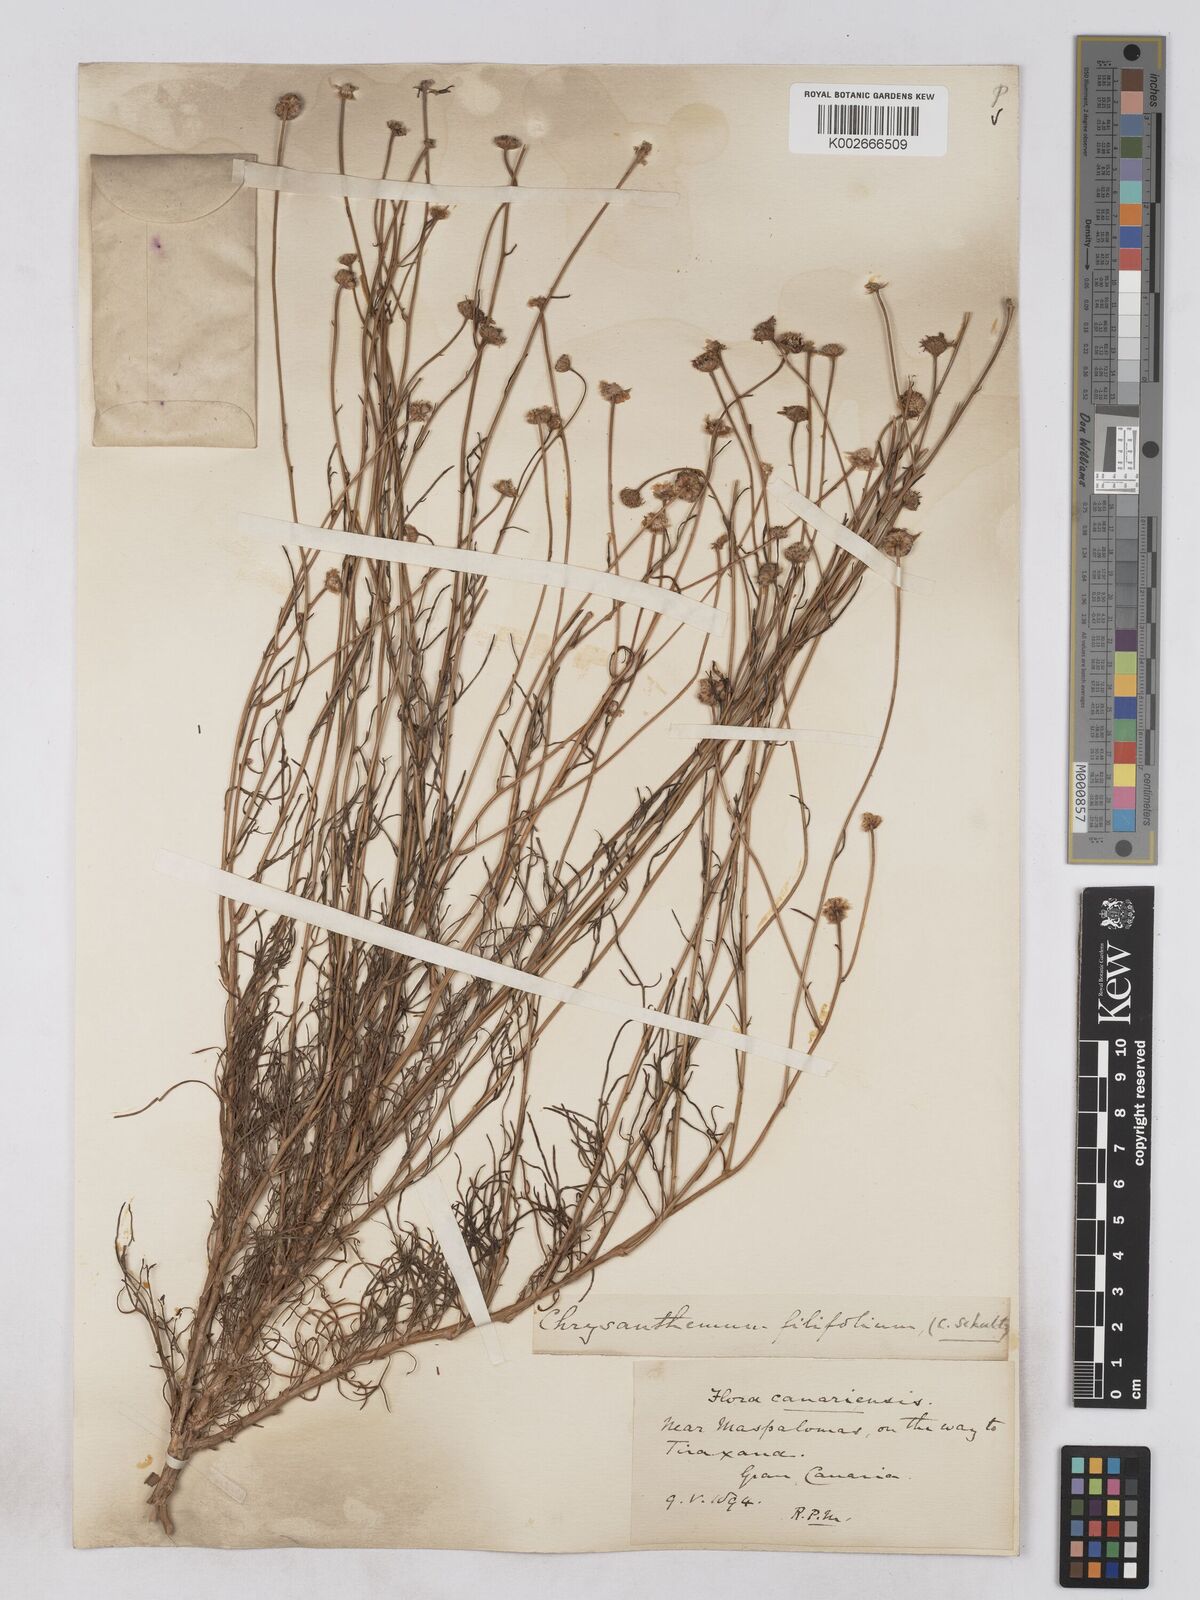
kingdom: Plantae
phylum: Tracheophyta
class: Magnoliopsida
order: Asterales
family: Asteraceae
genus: Argyranthemum
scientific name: Argyranthemum filifolium
